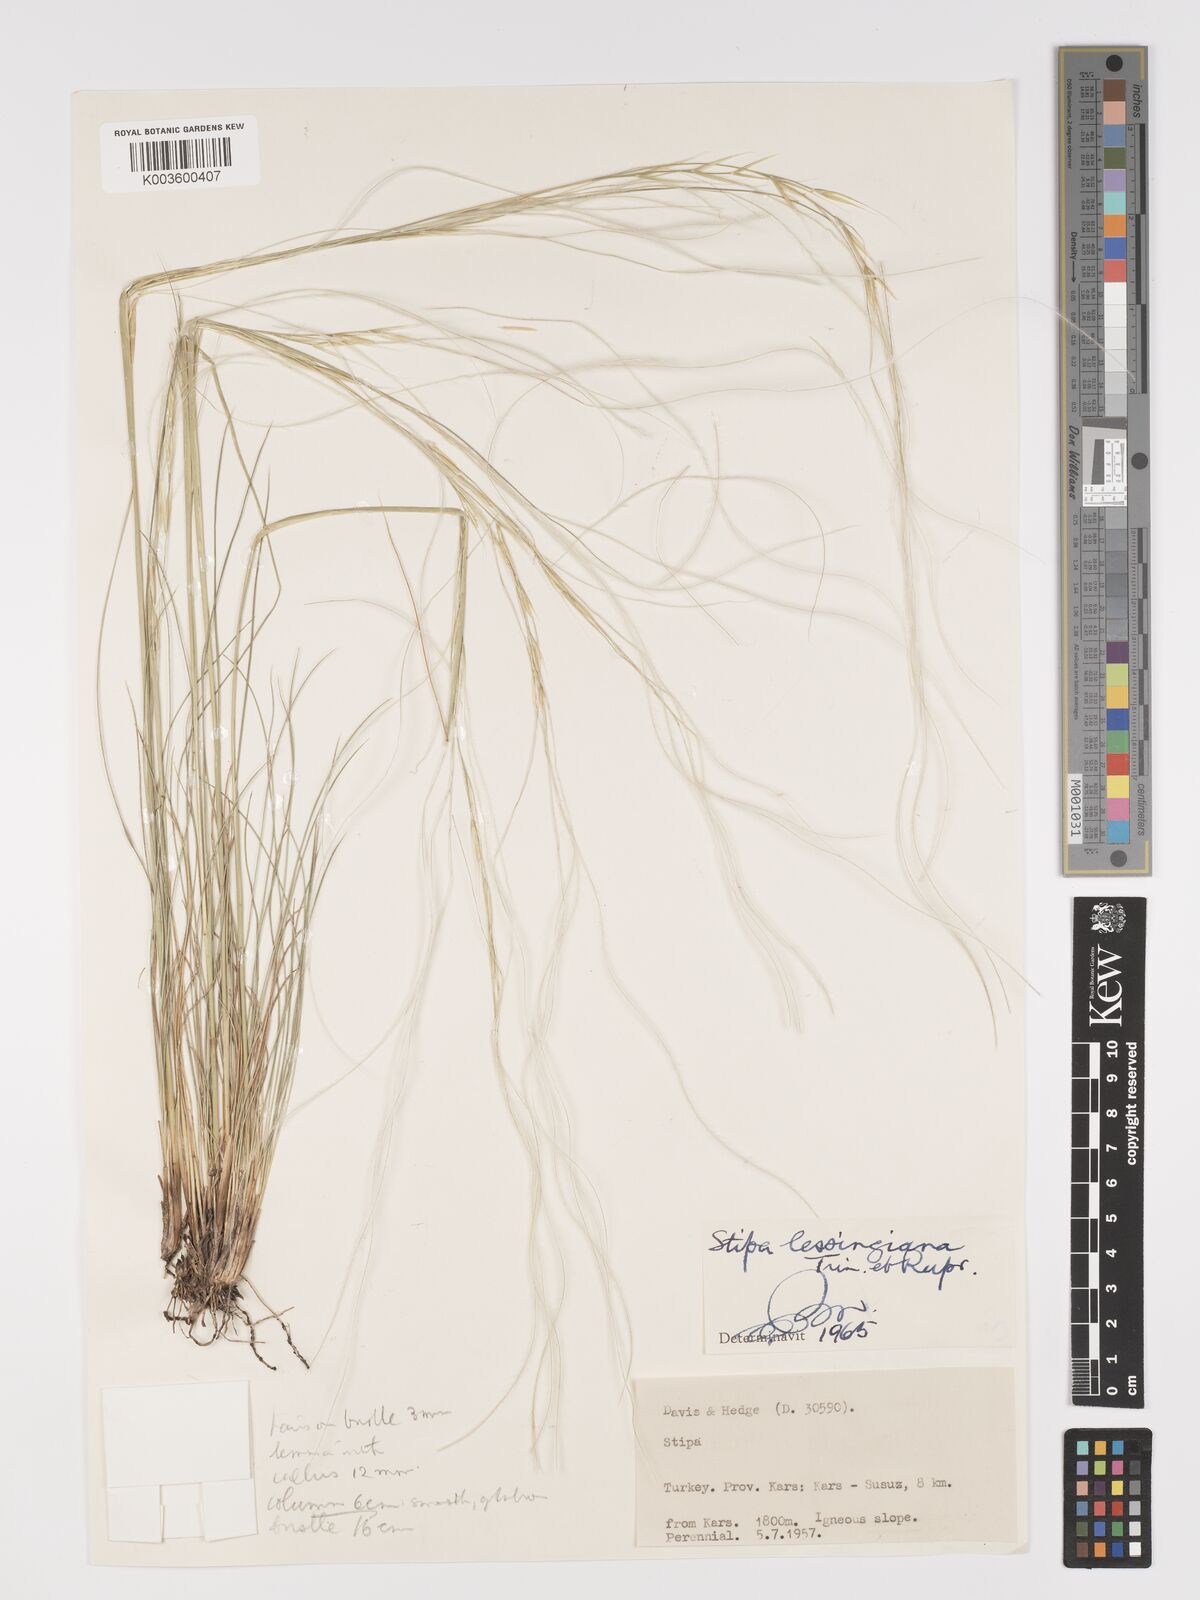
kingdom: Plantae
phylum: Tracheophyta
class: Liliopsida
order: Poales
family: Poaceae
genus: Stipa
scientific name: Stipa lessingiana
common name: Needle grass
